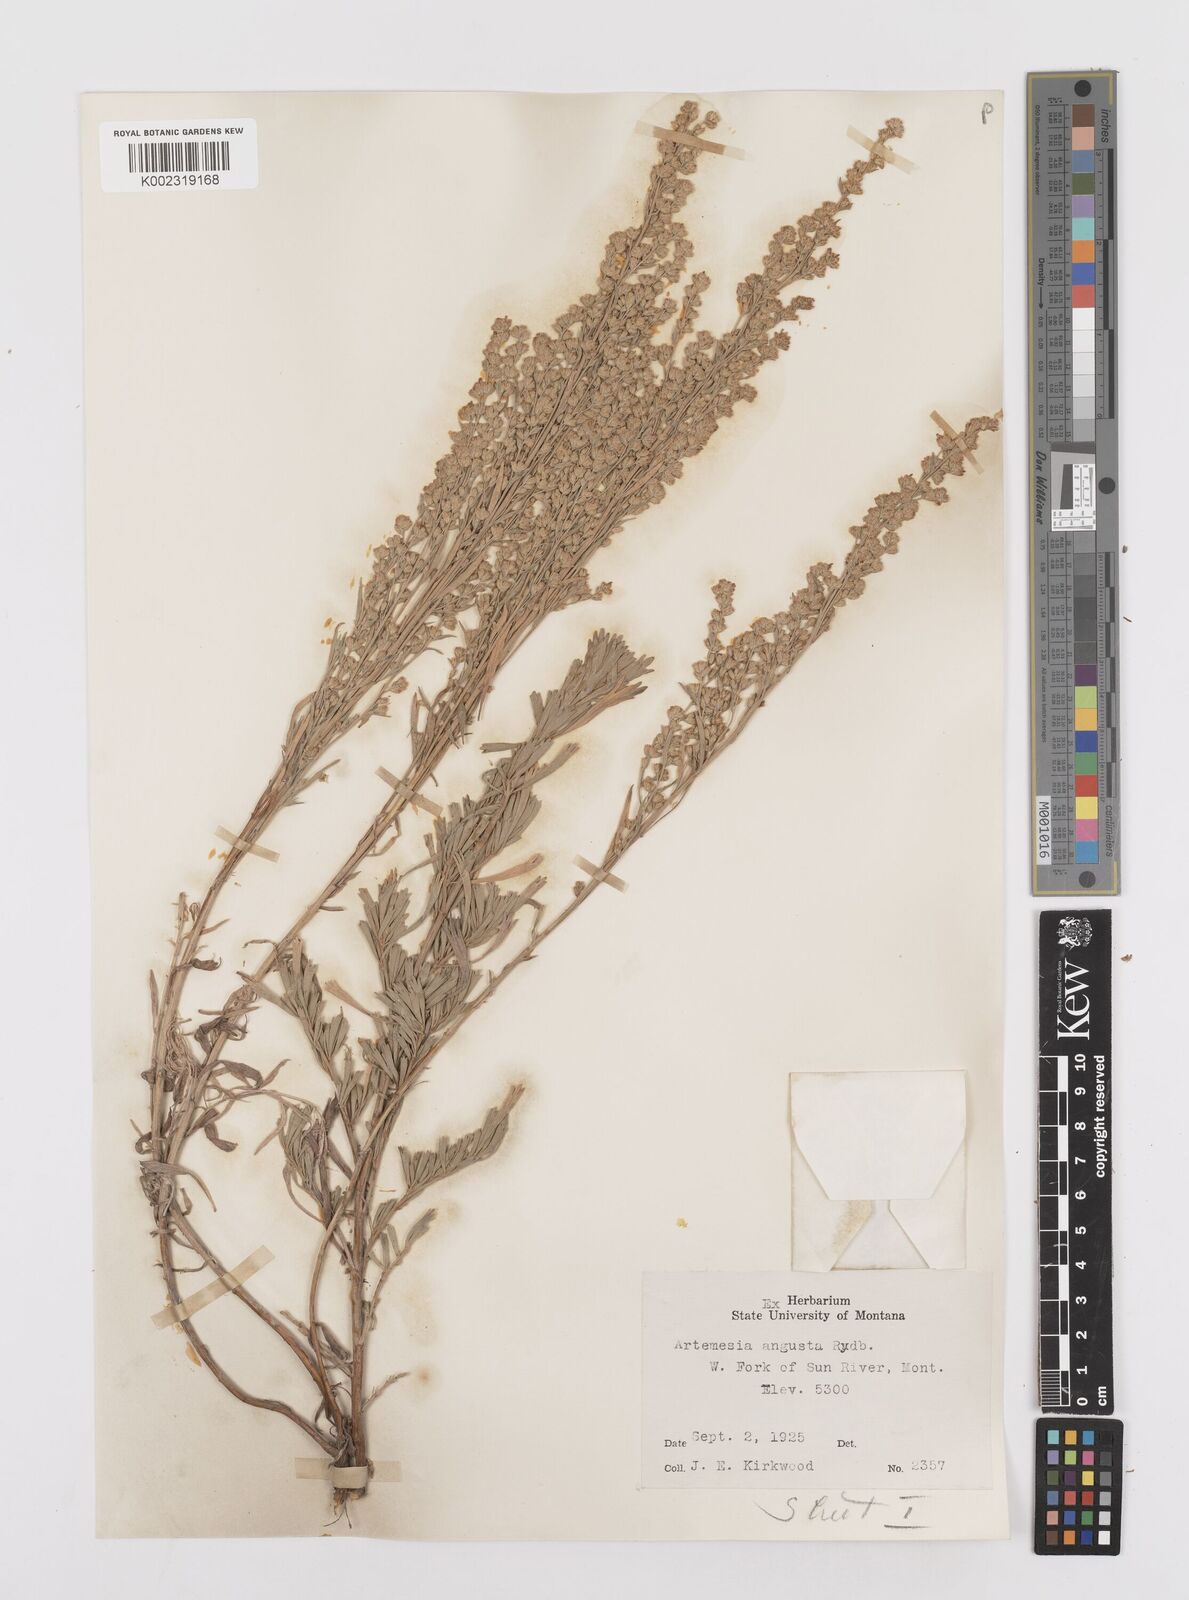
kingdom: Plantae
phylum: Tracheophyta
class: Magnoliopsida
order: Asterales
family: Asteraceae
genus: Artemisia
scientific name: Artemisia tridentata
